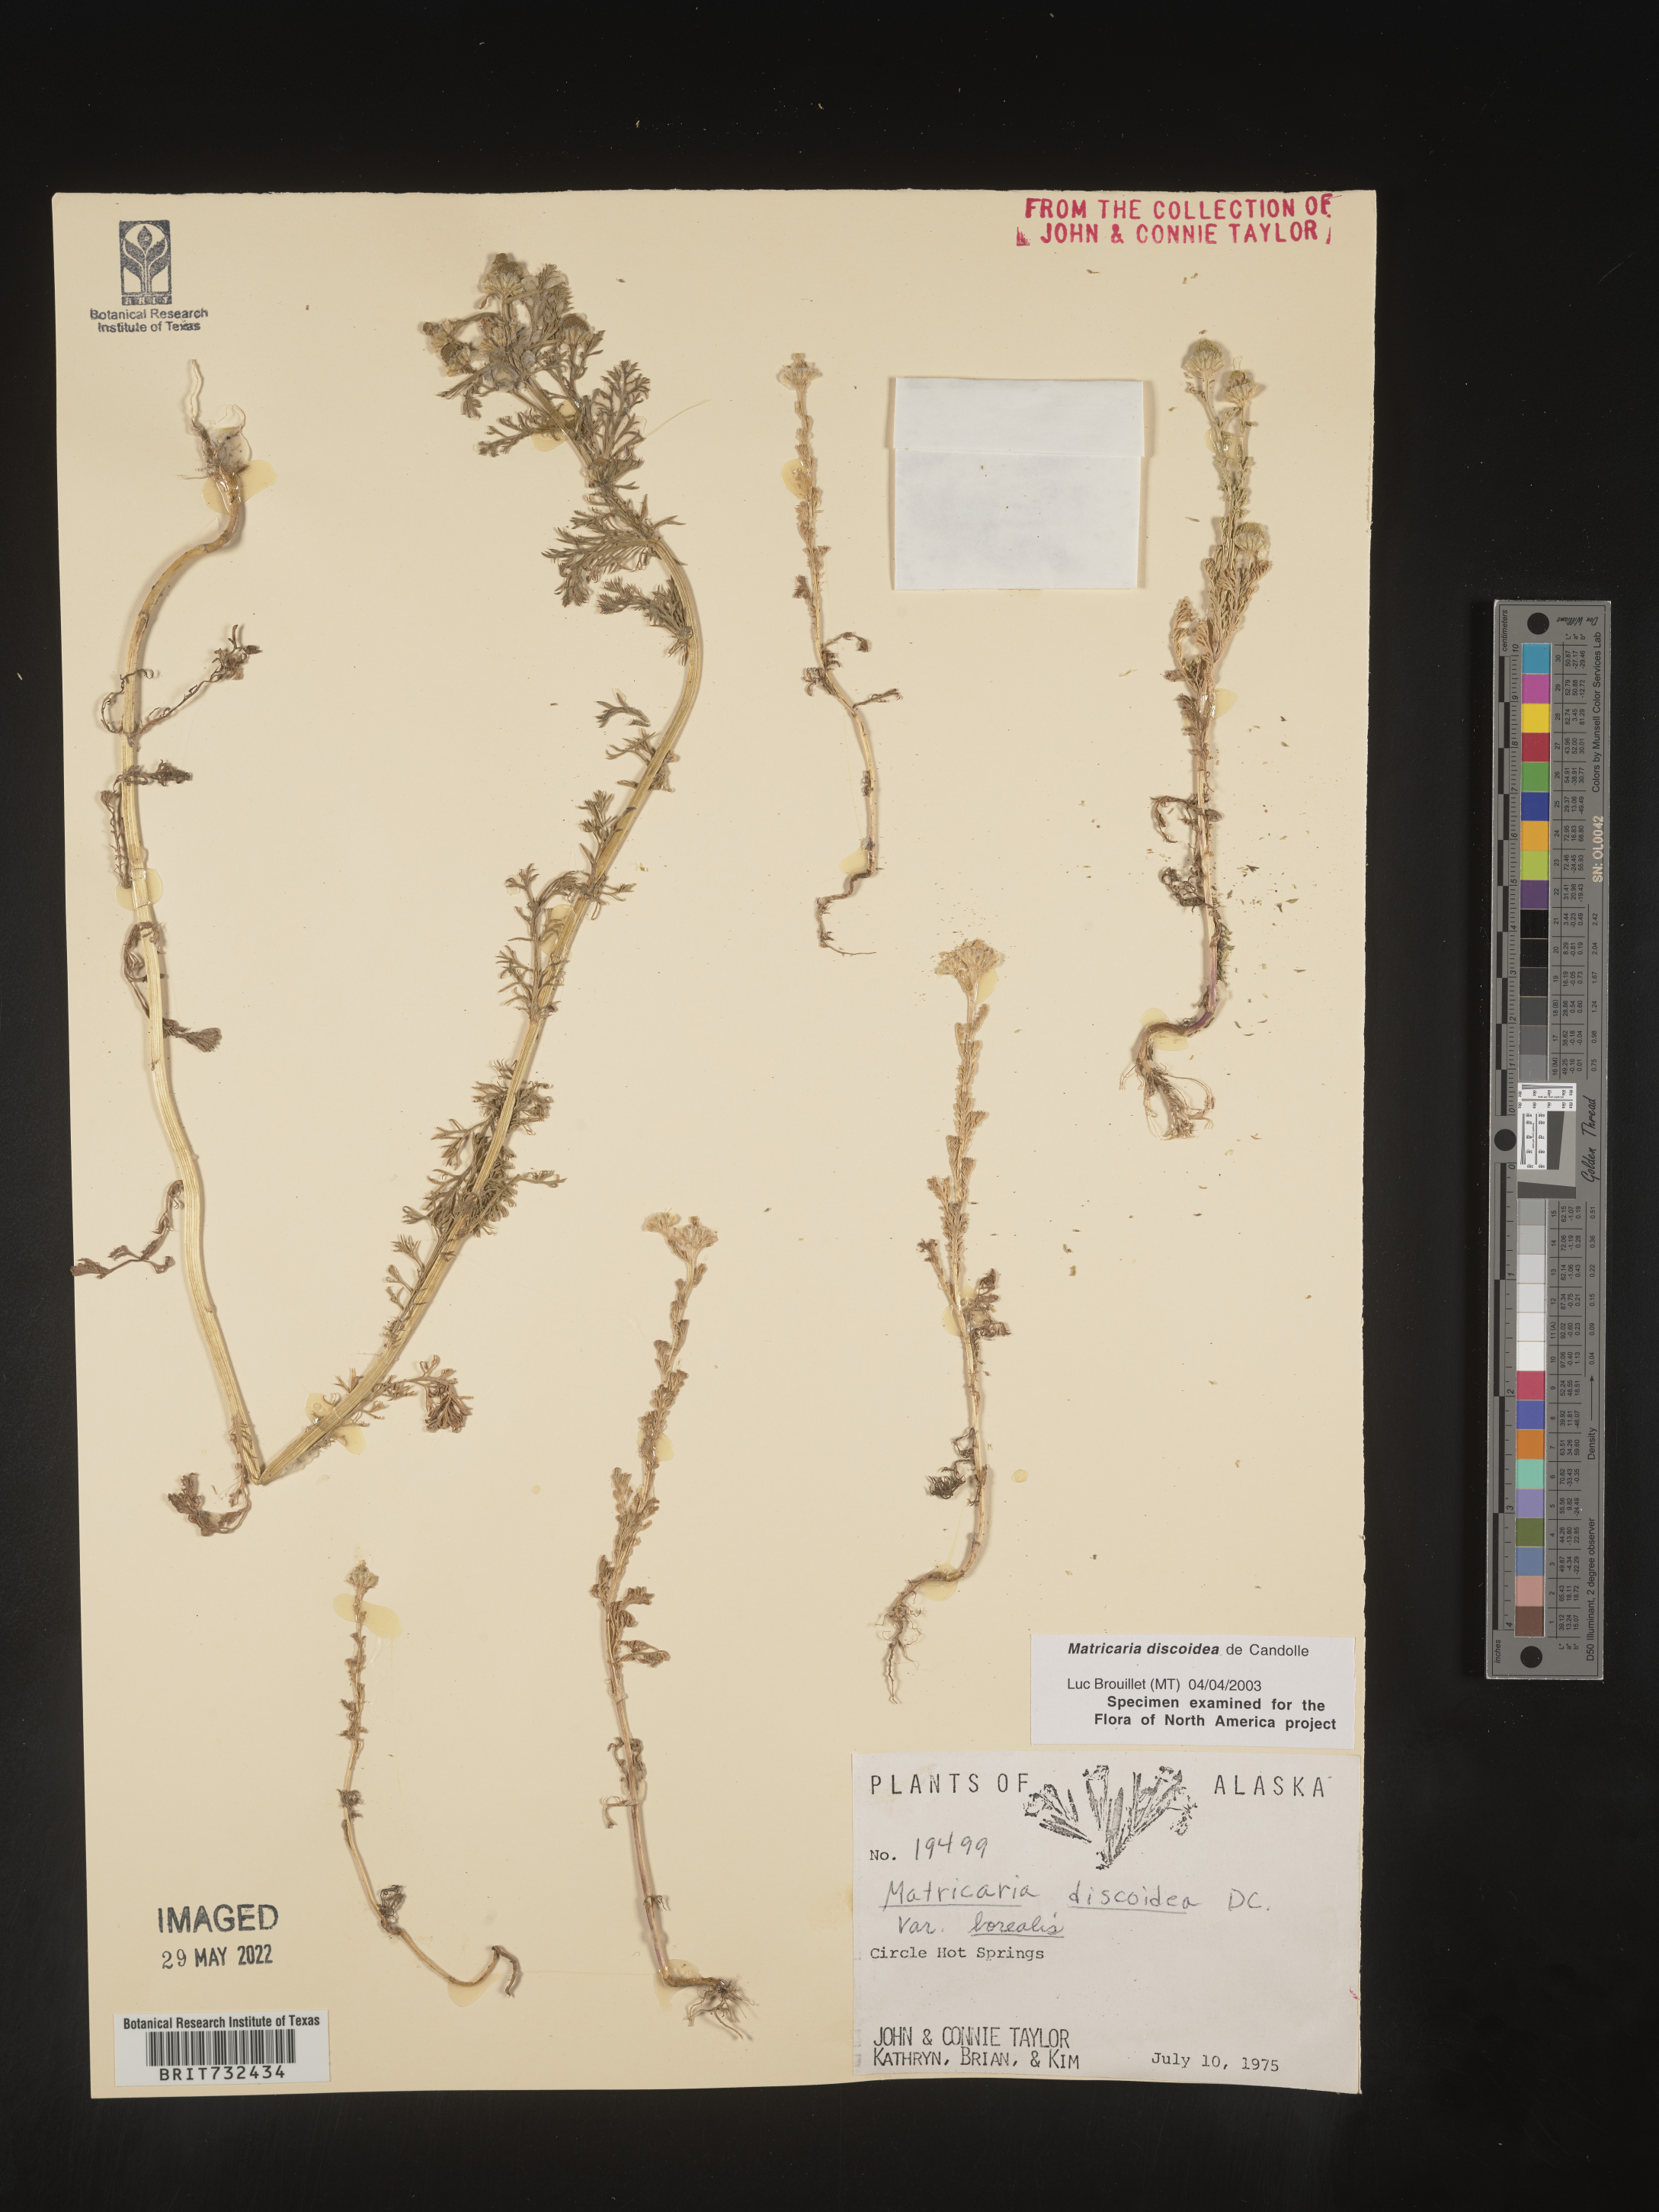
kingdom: Plantae
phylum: Tracheophyta
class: Magnoliopsida
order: Asterales
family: Asteraceae
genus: Matricaria
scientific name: Matricaria discoidea
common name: Disc mayweed
